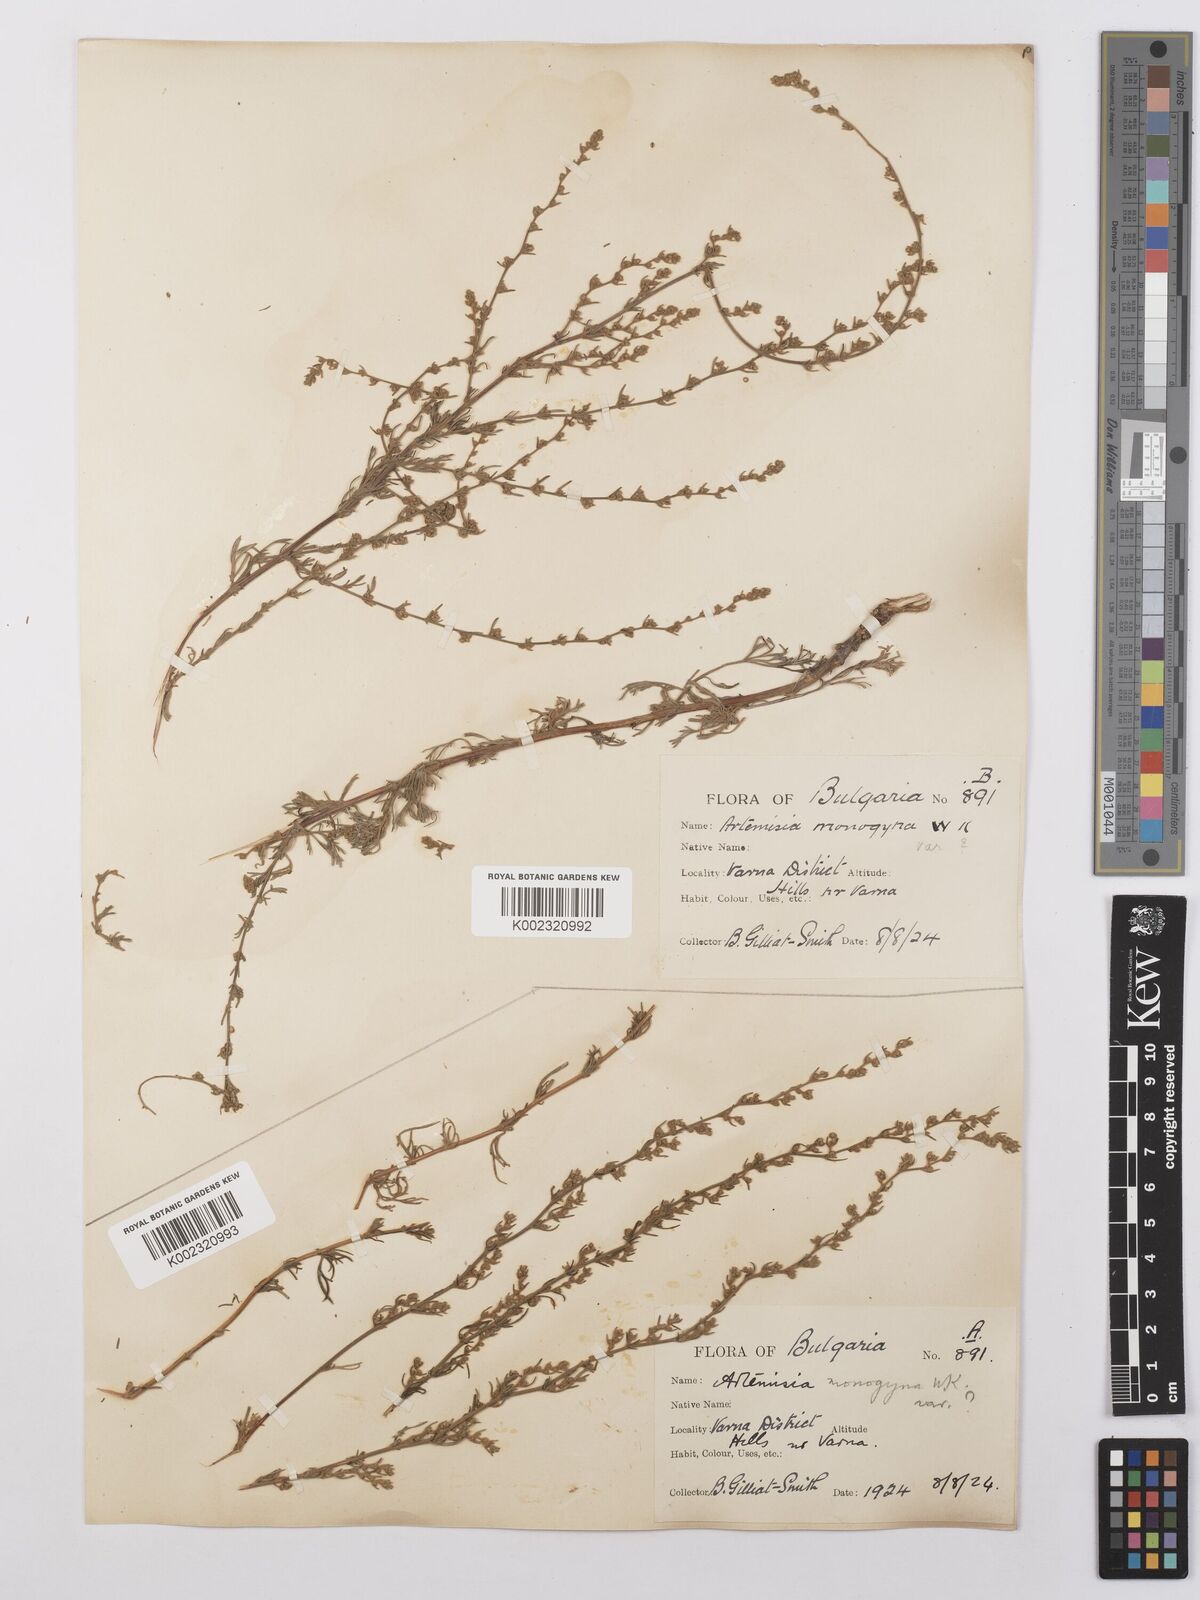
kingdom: Plantae
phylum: Tracheophyta
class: Magnoliopsida
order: Asterales
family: Asteraceae
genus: Artemisia
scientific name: Artemisia santonicum
